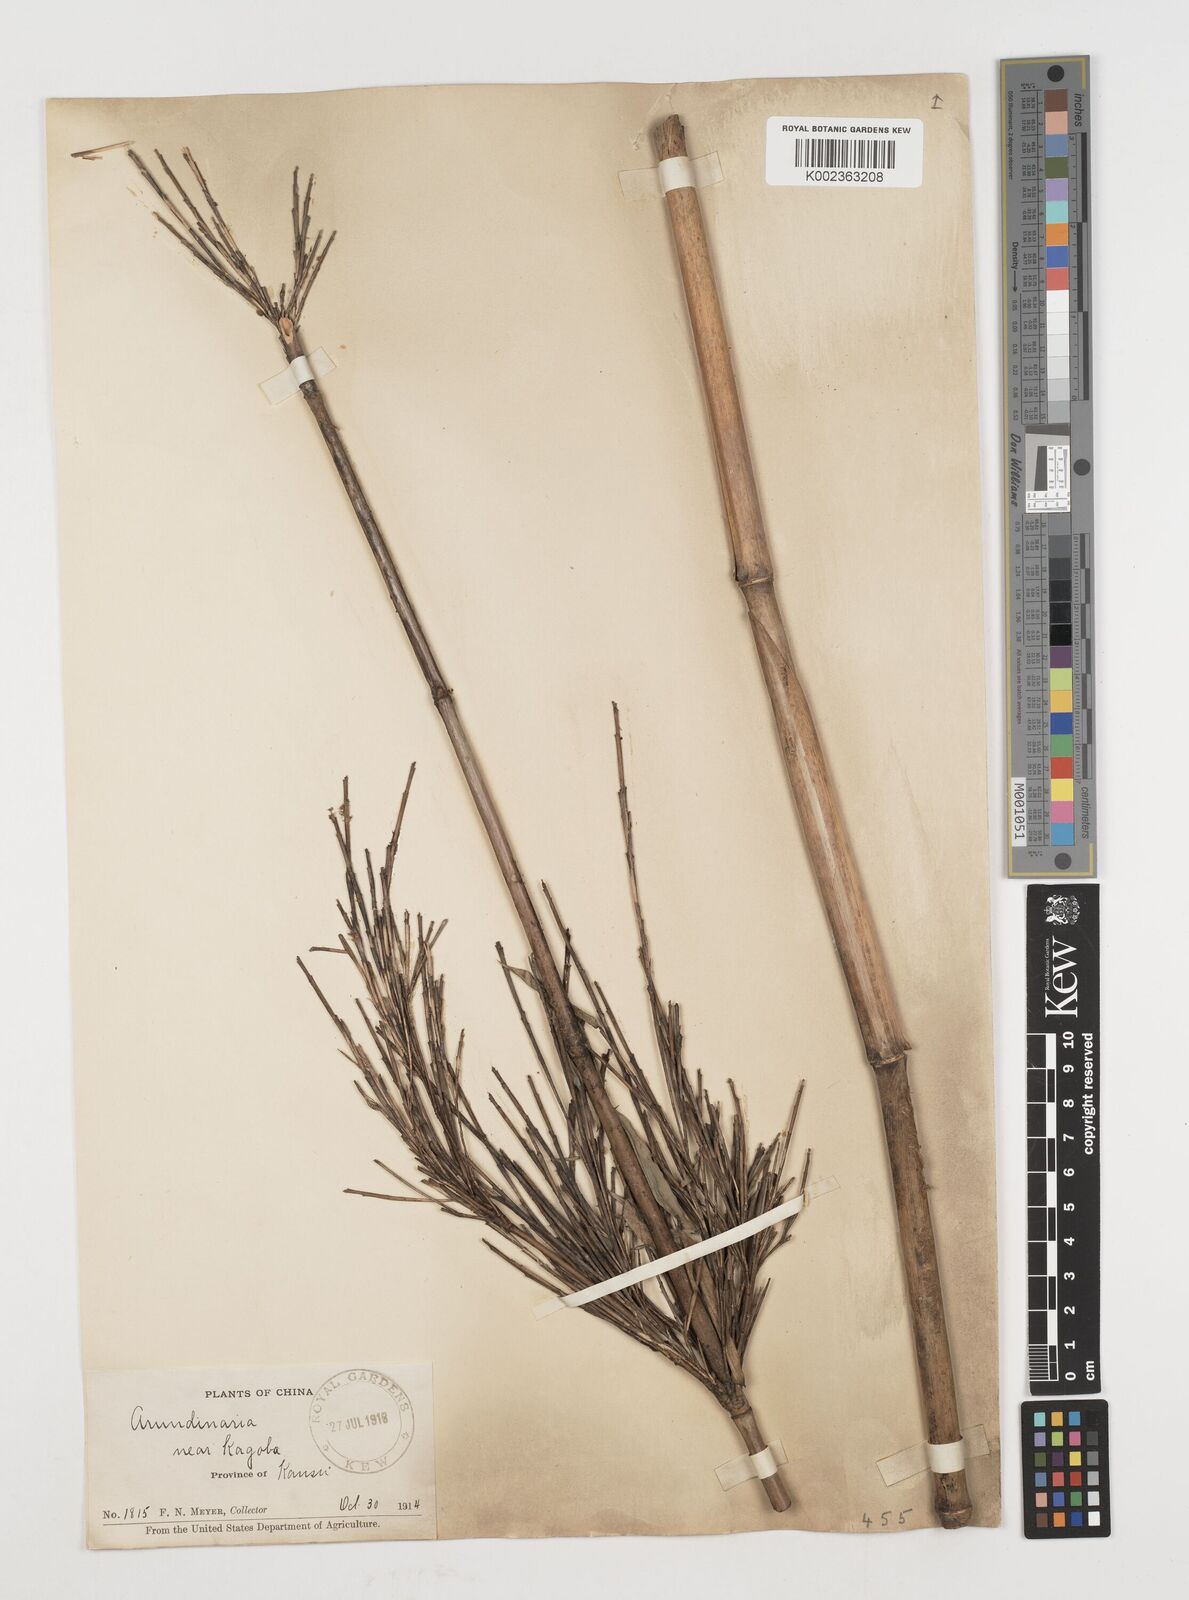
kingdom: Plantae
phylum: Tracheophyta
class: Liliopsida
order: Poales
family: Poaceae
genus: Fargesia
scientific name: Fargesia nitida ex
